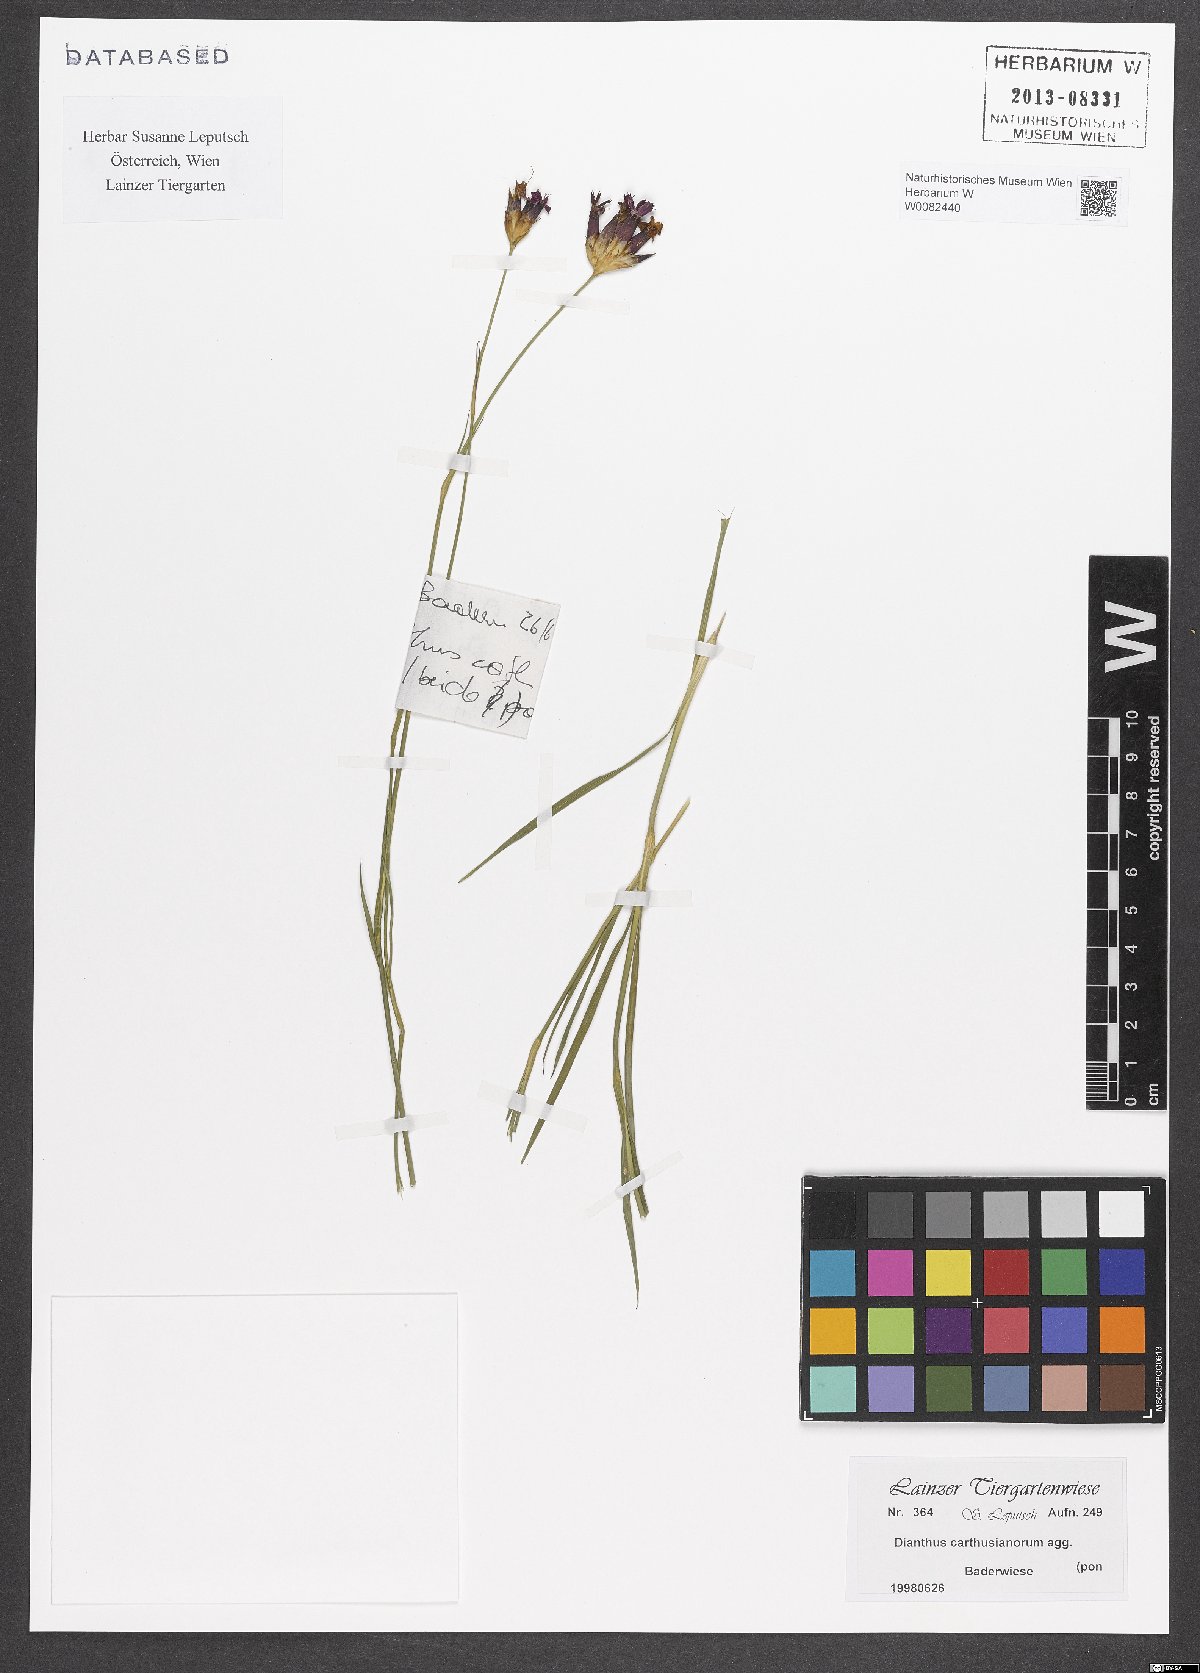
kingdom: Plantae
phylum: Tracheophyta
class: Magnoliopsida
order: Caryophyllales
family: Caryophyllaceae
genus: Dianthus
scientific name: Dianthus carthusianorum
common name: Carthusian pink
